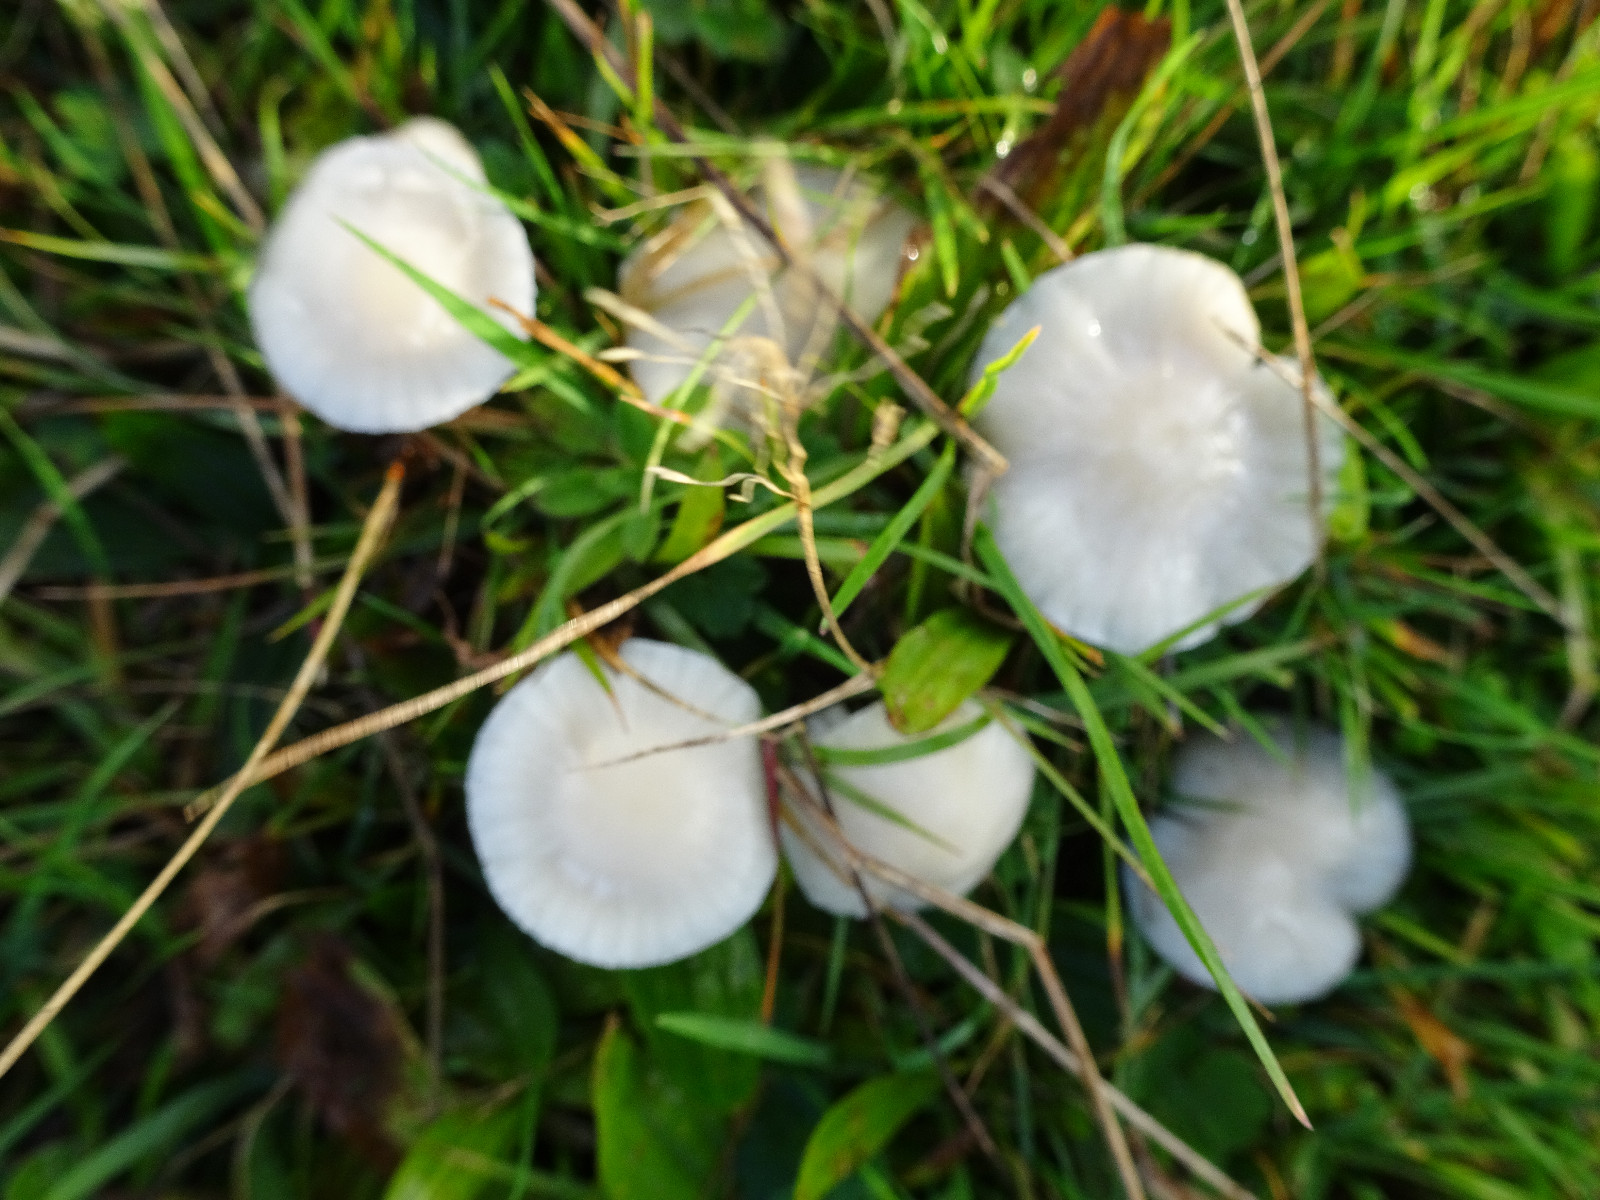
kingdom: Fungi
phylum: Basidiomycota
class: Agaricomycetes
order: Agaricales
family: Hygrophoraceae
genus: Cuphophyllus
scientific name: Cuphophyllus virgineus
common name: snehvid vokshat
